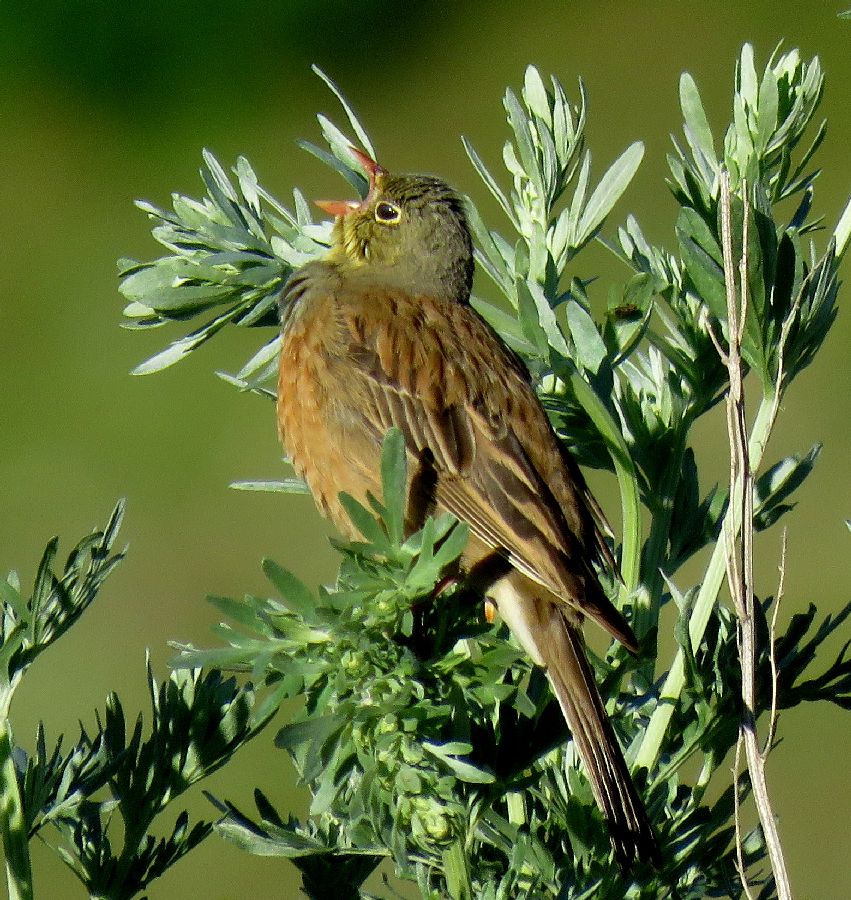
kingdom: Animalia
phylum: Chordata
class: Aves
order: Passeriformes
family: Emberizidae
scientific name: Emberizidae
